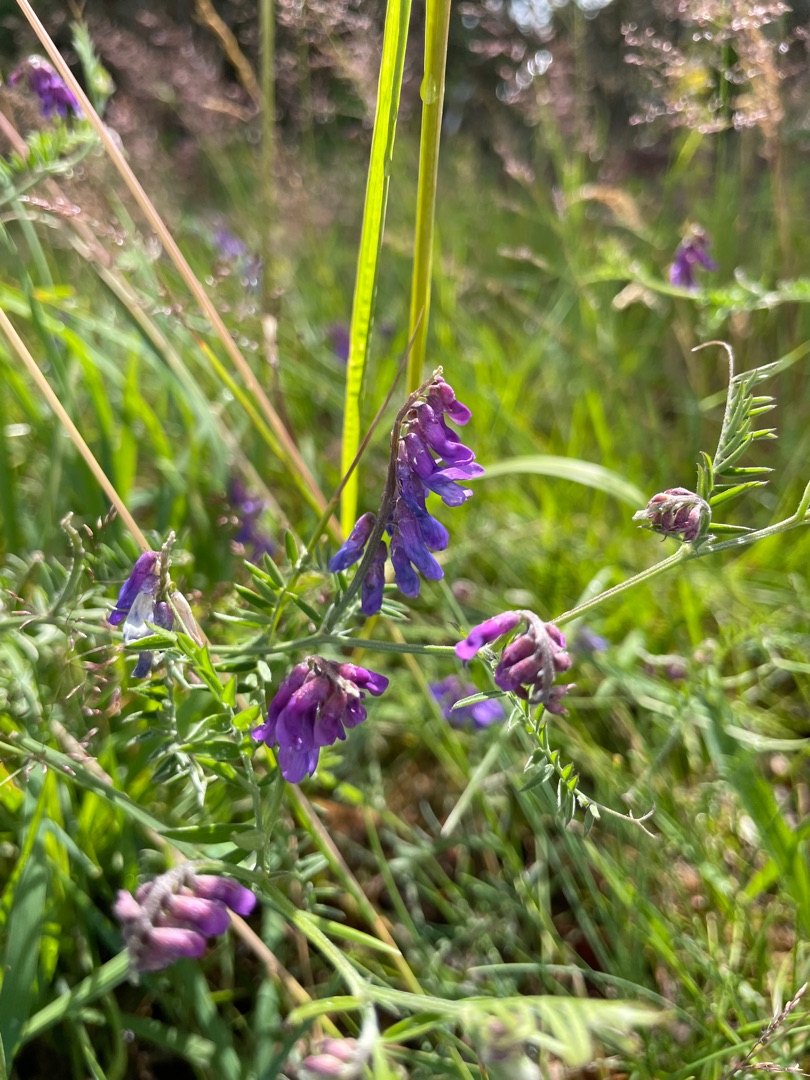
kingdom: Plantae
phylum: Tracheophyta
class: Magnoliopsida
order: Fabales
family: Fabaceae
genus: Vicia
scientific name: Vicia cracca
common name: Muse-vikke
